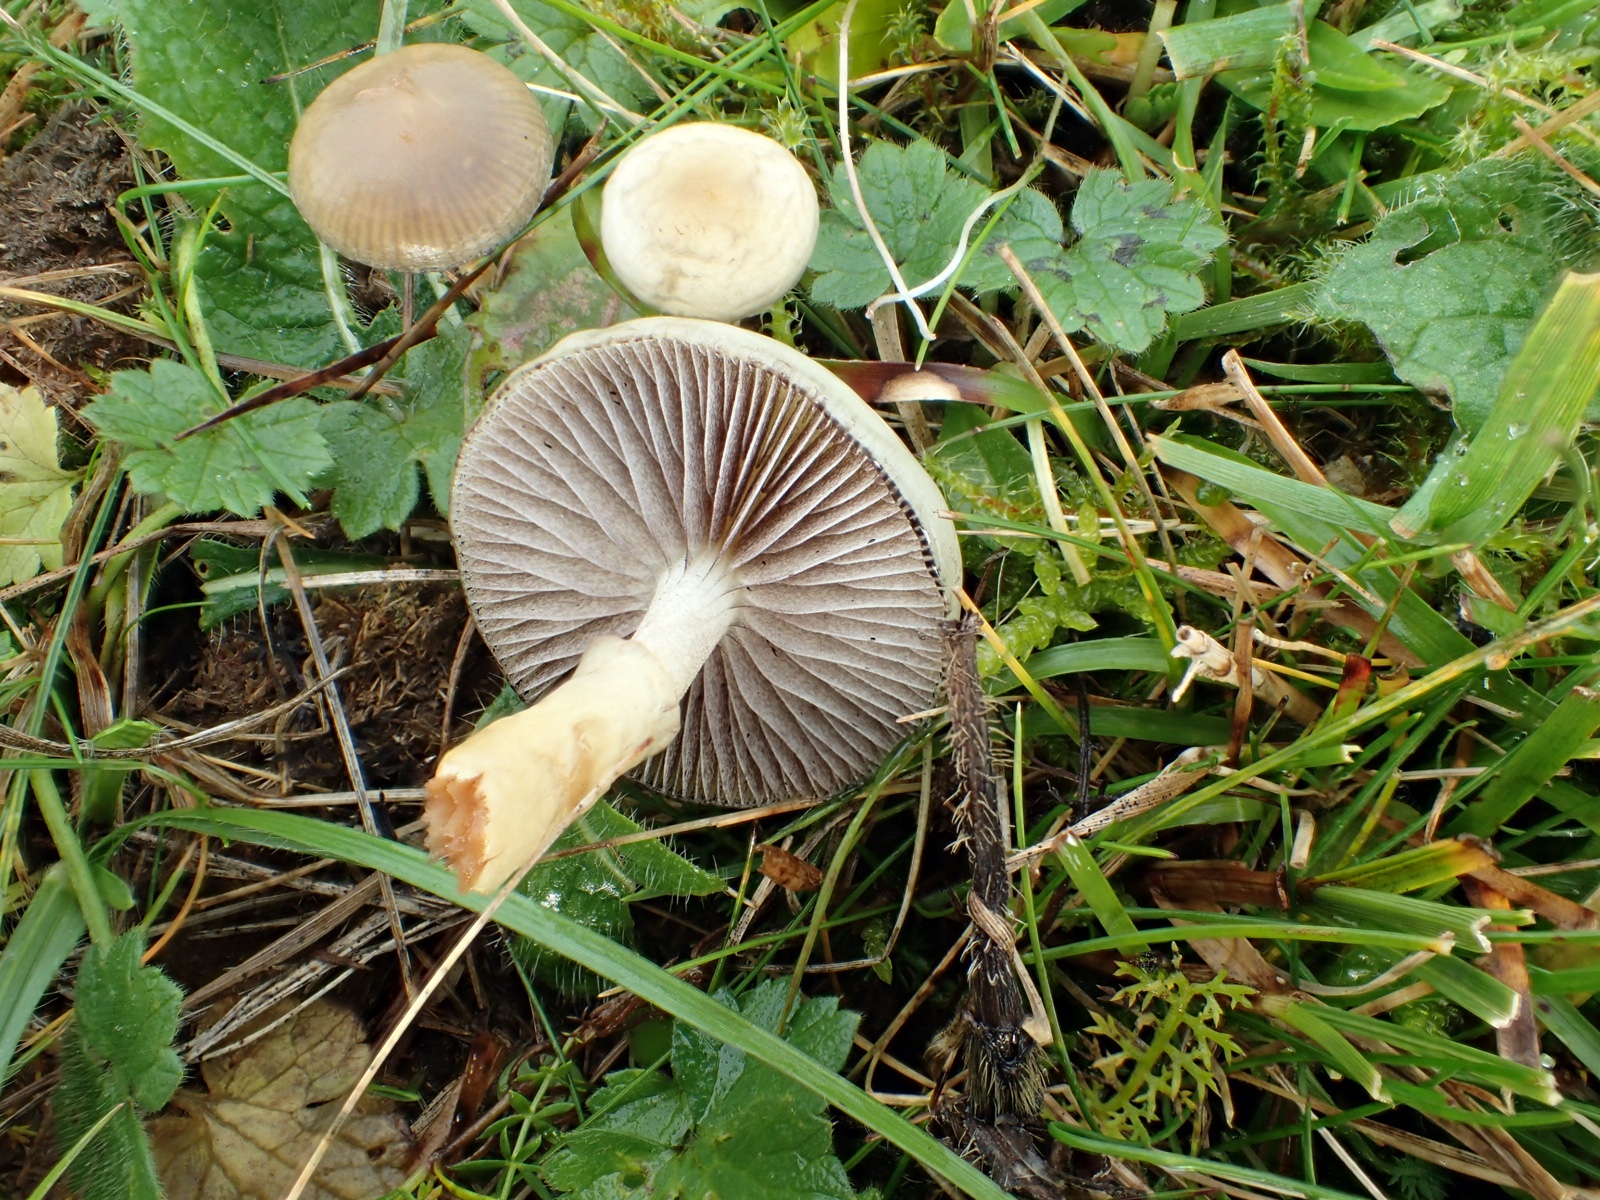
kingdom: Fungi
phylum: Basidiomycota
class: Agaricomycetes
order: Agaricales
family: Strophariaceae
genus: Protostropharia
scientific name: Protostropharia semiglobata
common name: halvkugleformet bredblad
